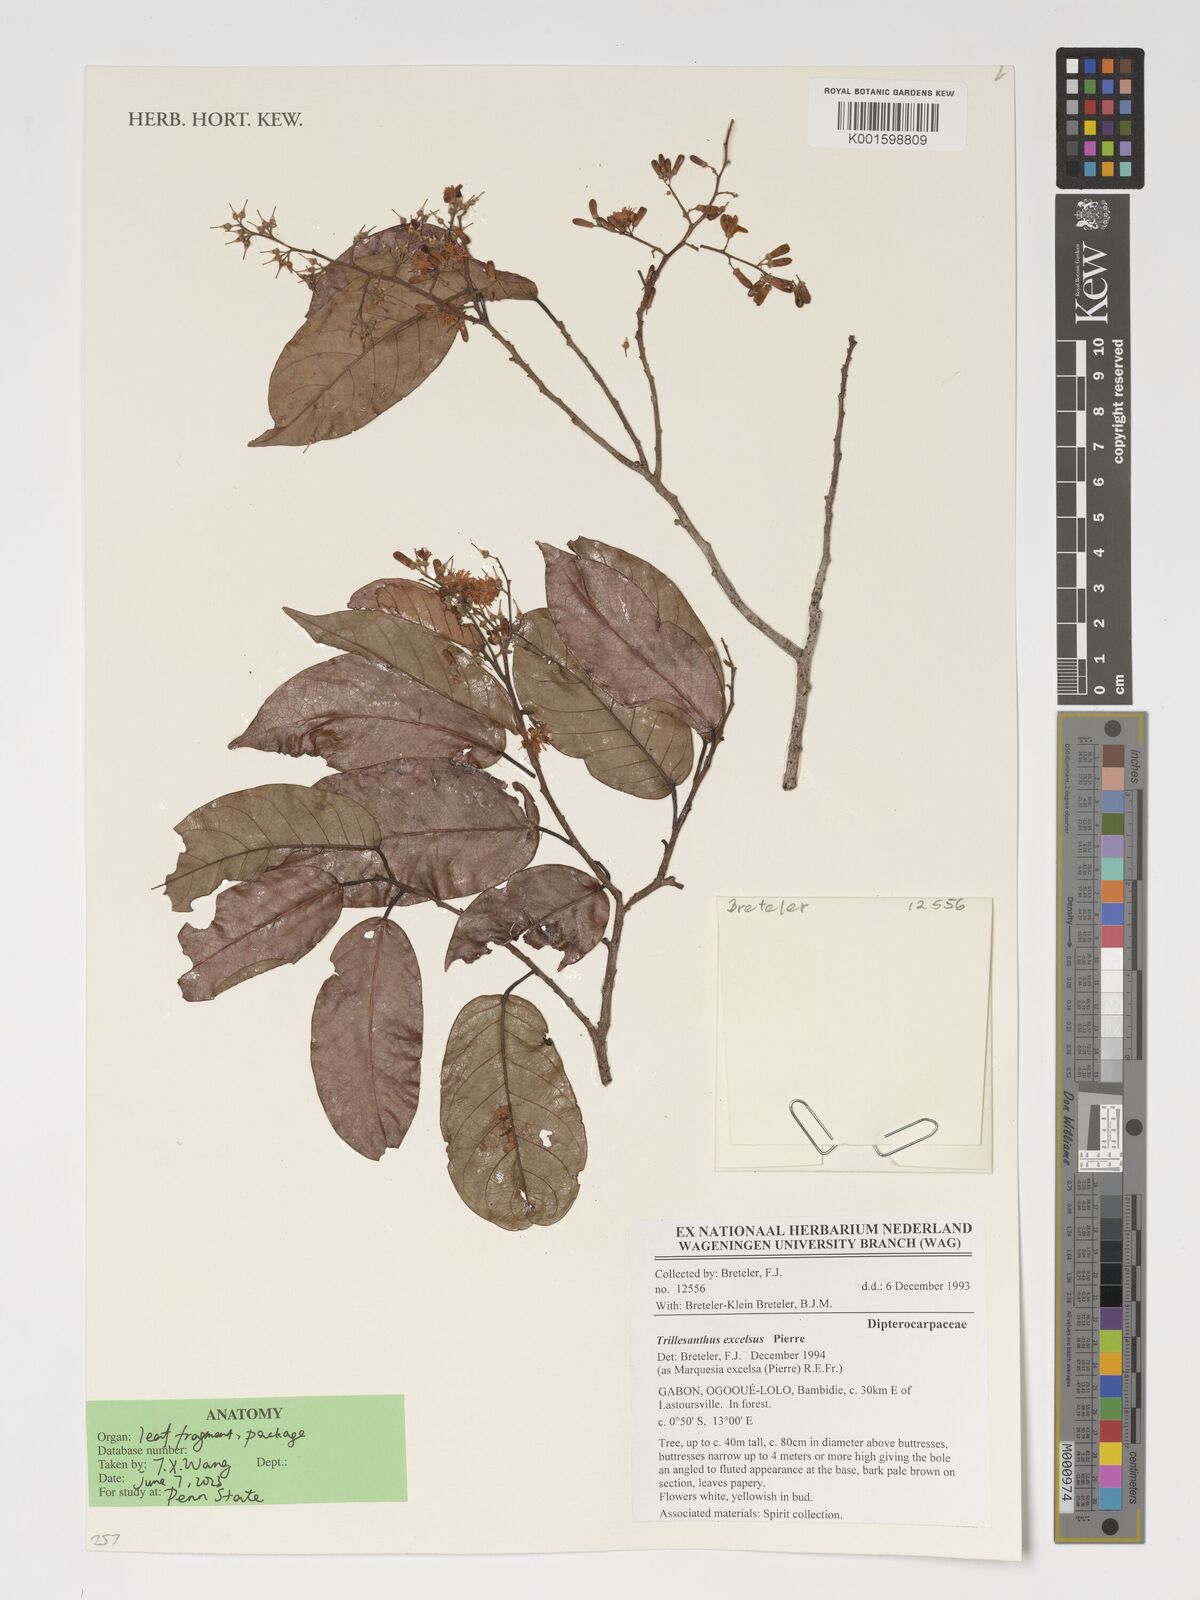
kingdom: Plantae
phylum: Tracheophyta
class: Magnoliopsida
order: Malvales
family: Dipterocarpaceae
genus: Marquesia
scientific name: Marquesia excelsa
